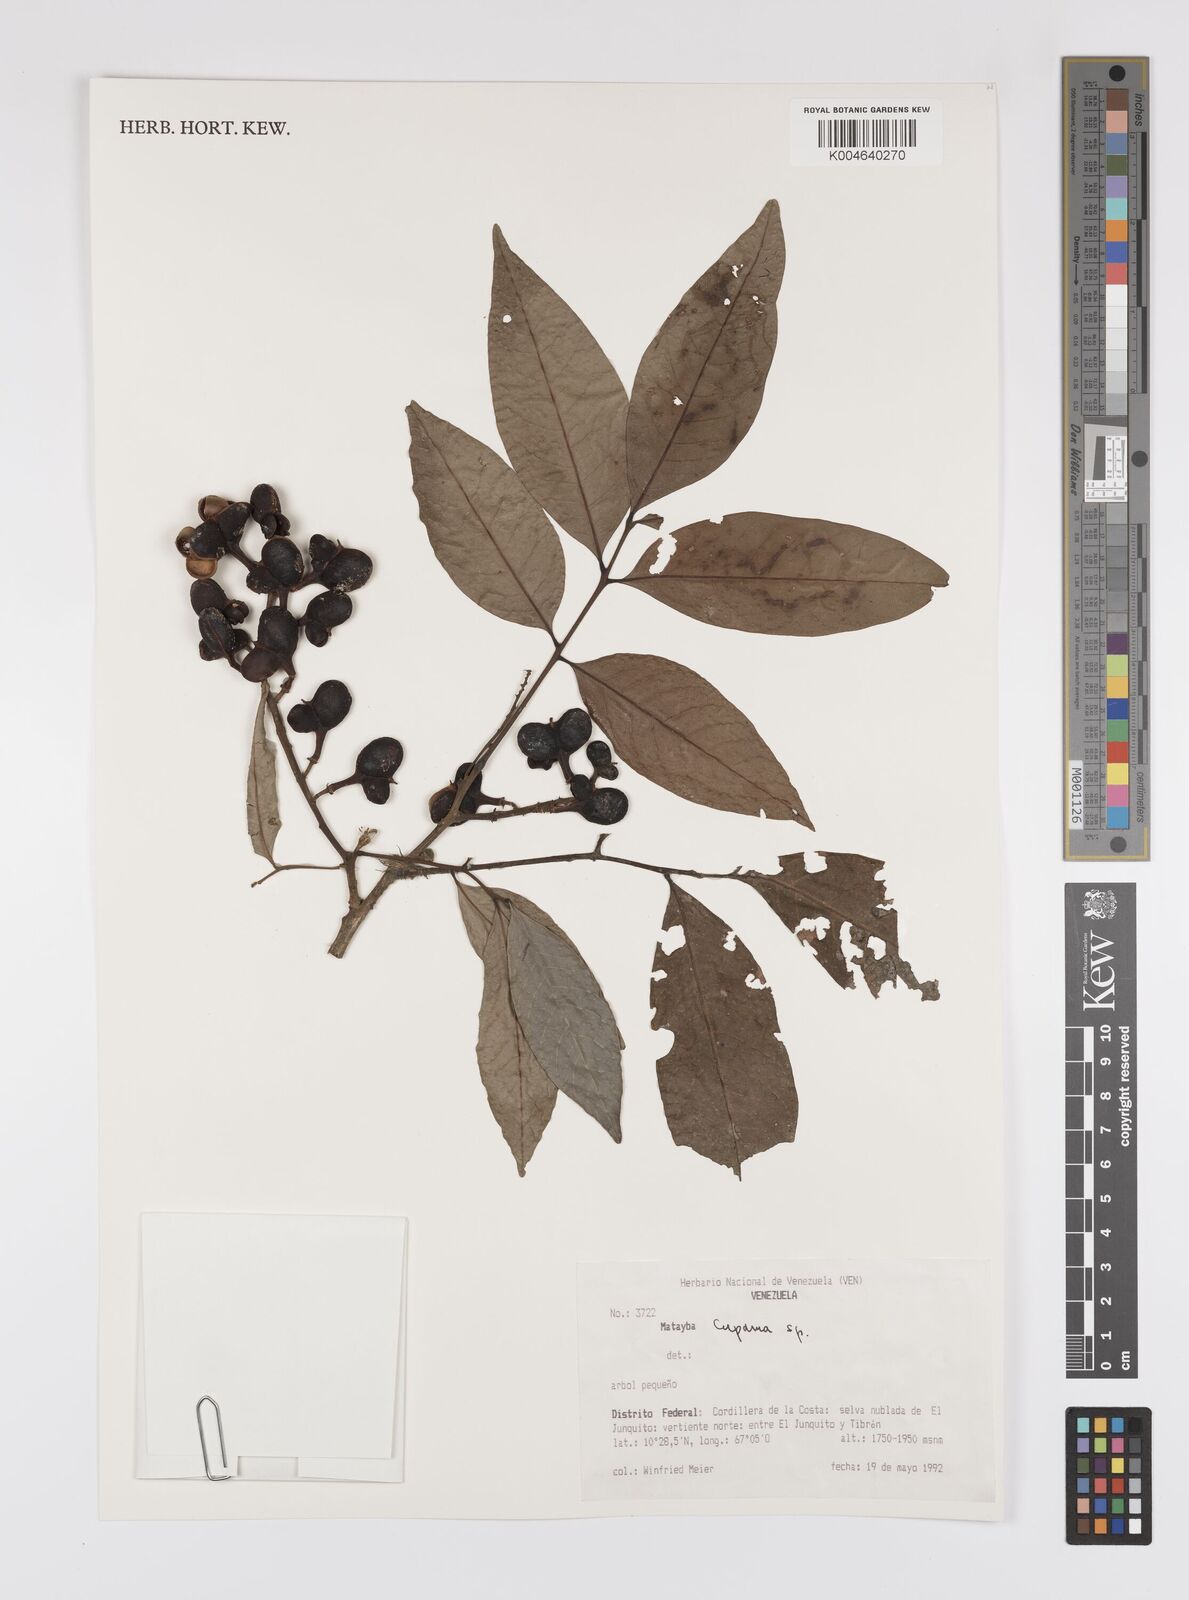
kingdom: Plantae
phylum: Tracheophyta
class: Magnoliopsida
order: Sapindales
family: Sapindaceae
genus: Cupania
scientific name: Cupania
